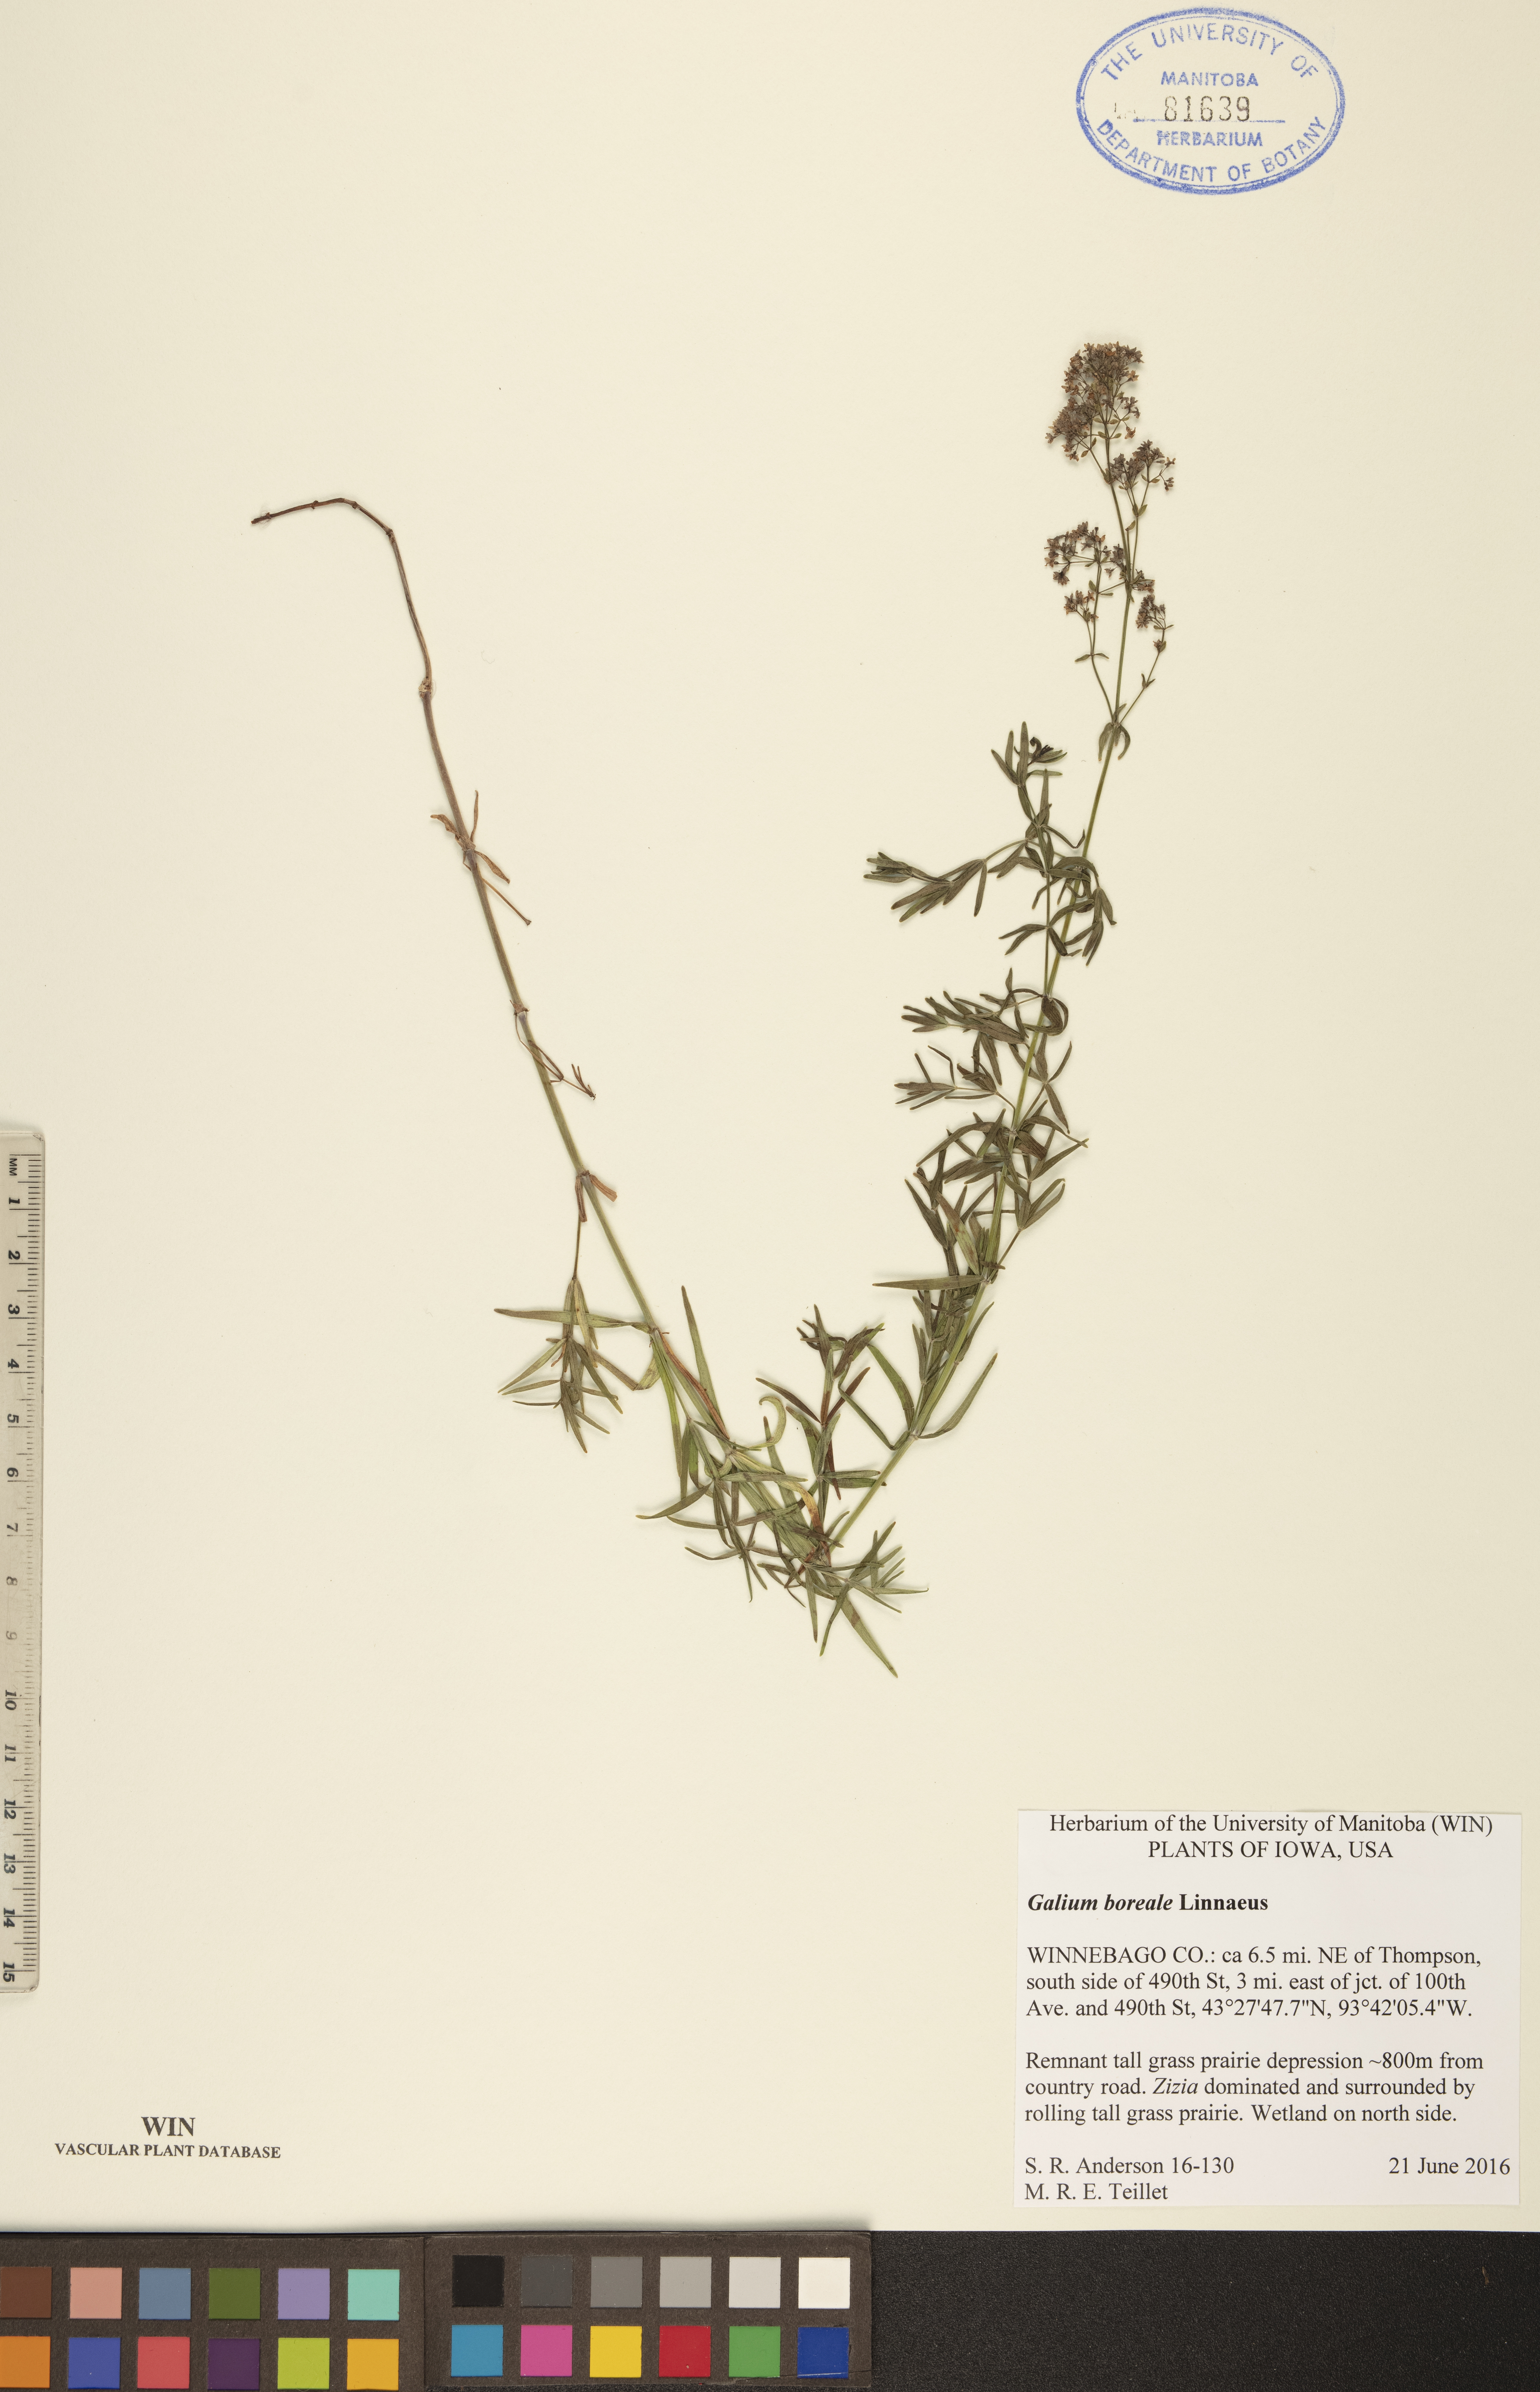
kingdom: Plantae
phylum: Tracheophyta
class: Magnoliopsida
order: Gentianales
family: Rubiaceae
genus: Galium
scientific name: Galium boreale
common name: Northern bedstraw
